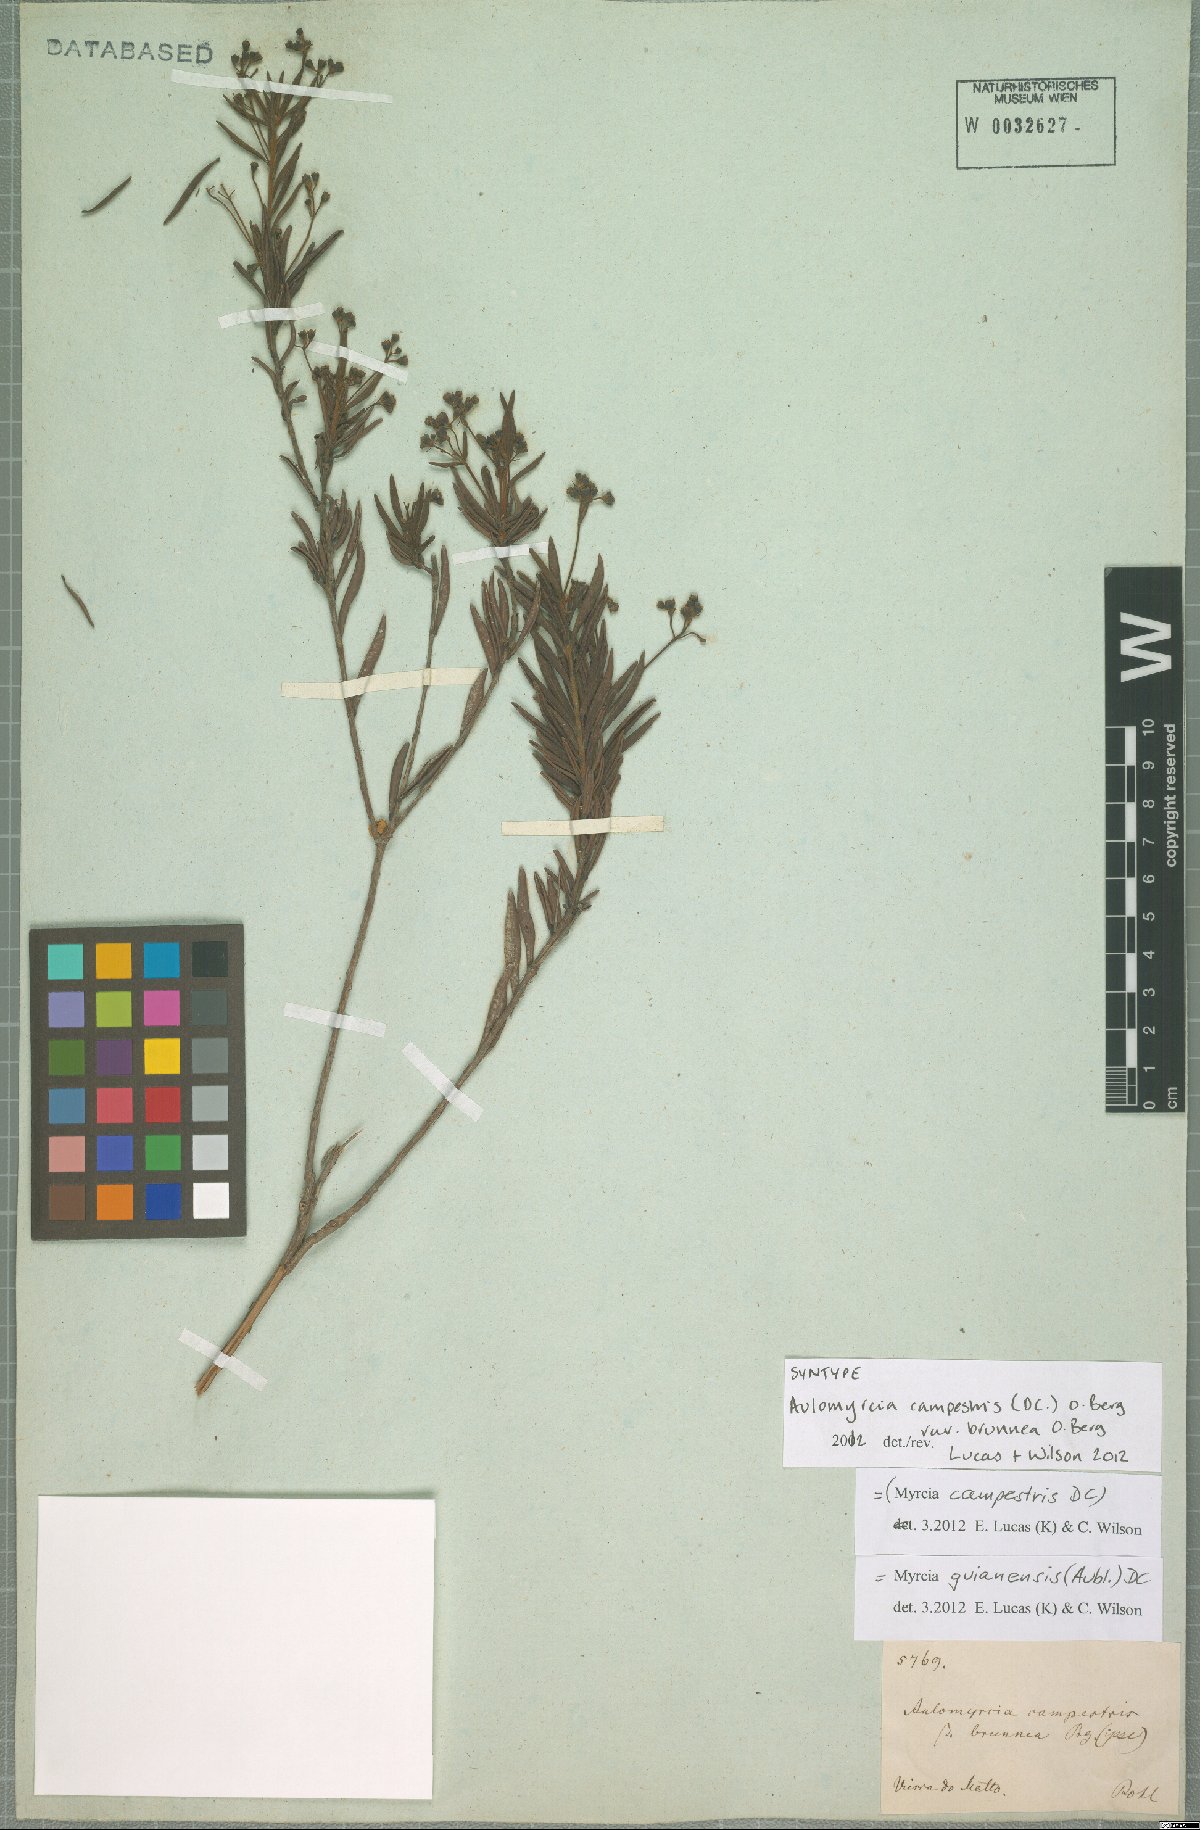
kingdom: Plantae
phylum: Tracheophyta
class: Magnoliopsida
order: Myrtales
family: Myrtaceae
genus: Myrcia
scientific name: Myrcia guianensis
